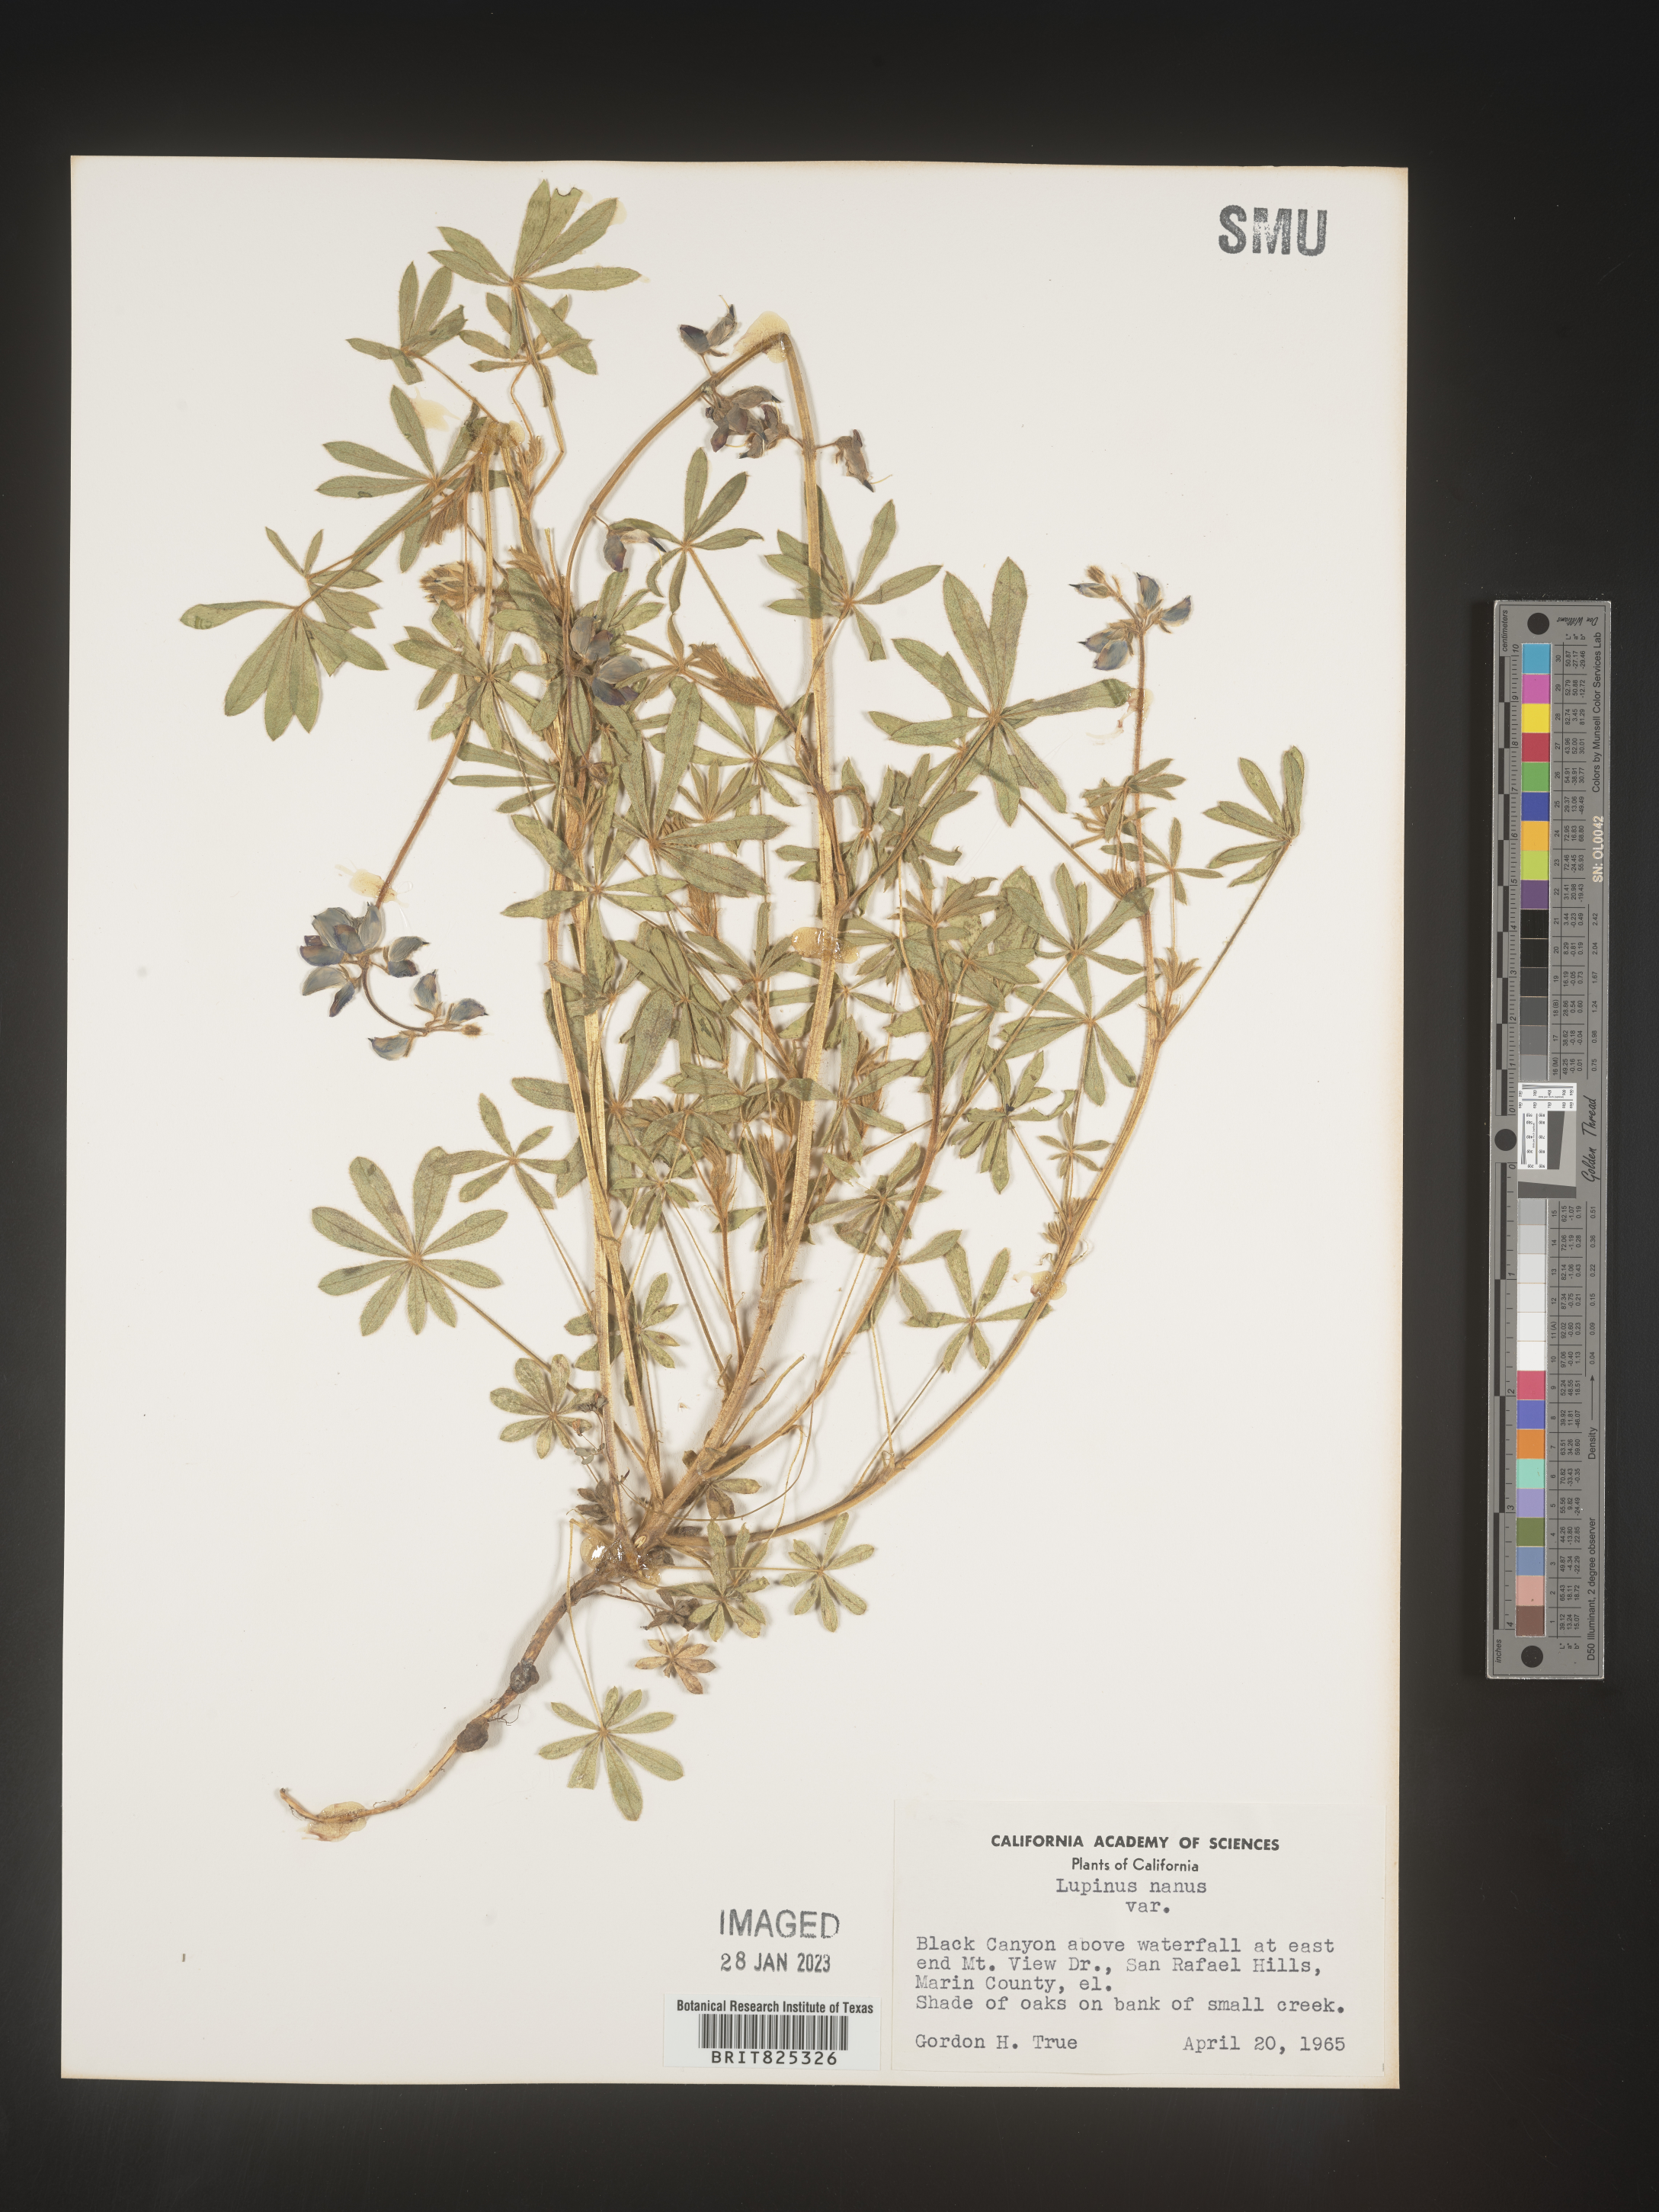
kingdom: Plantae
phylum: Tracheophyta
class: Magnoliopsida
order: Fabales
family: Fabaceae
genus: Lupinus
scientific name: Lupinus nanus
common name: Orean blue lupin
